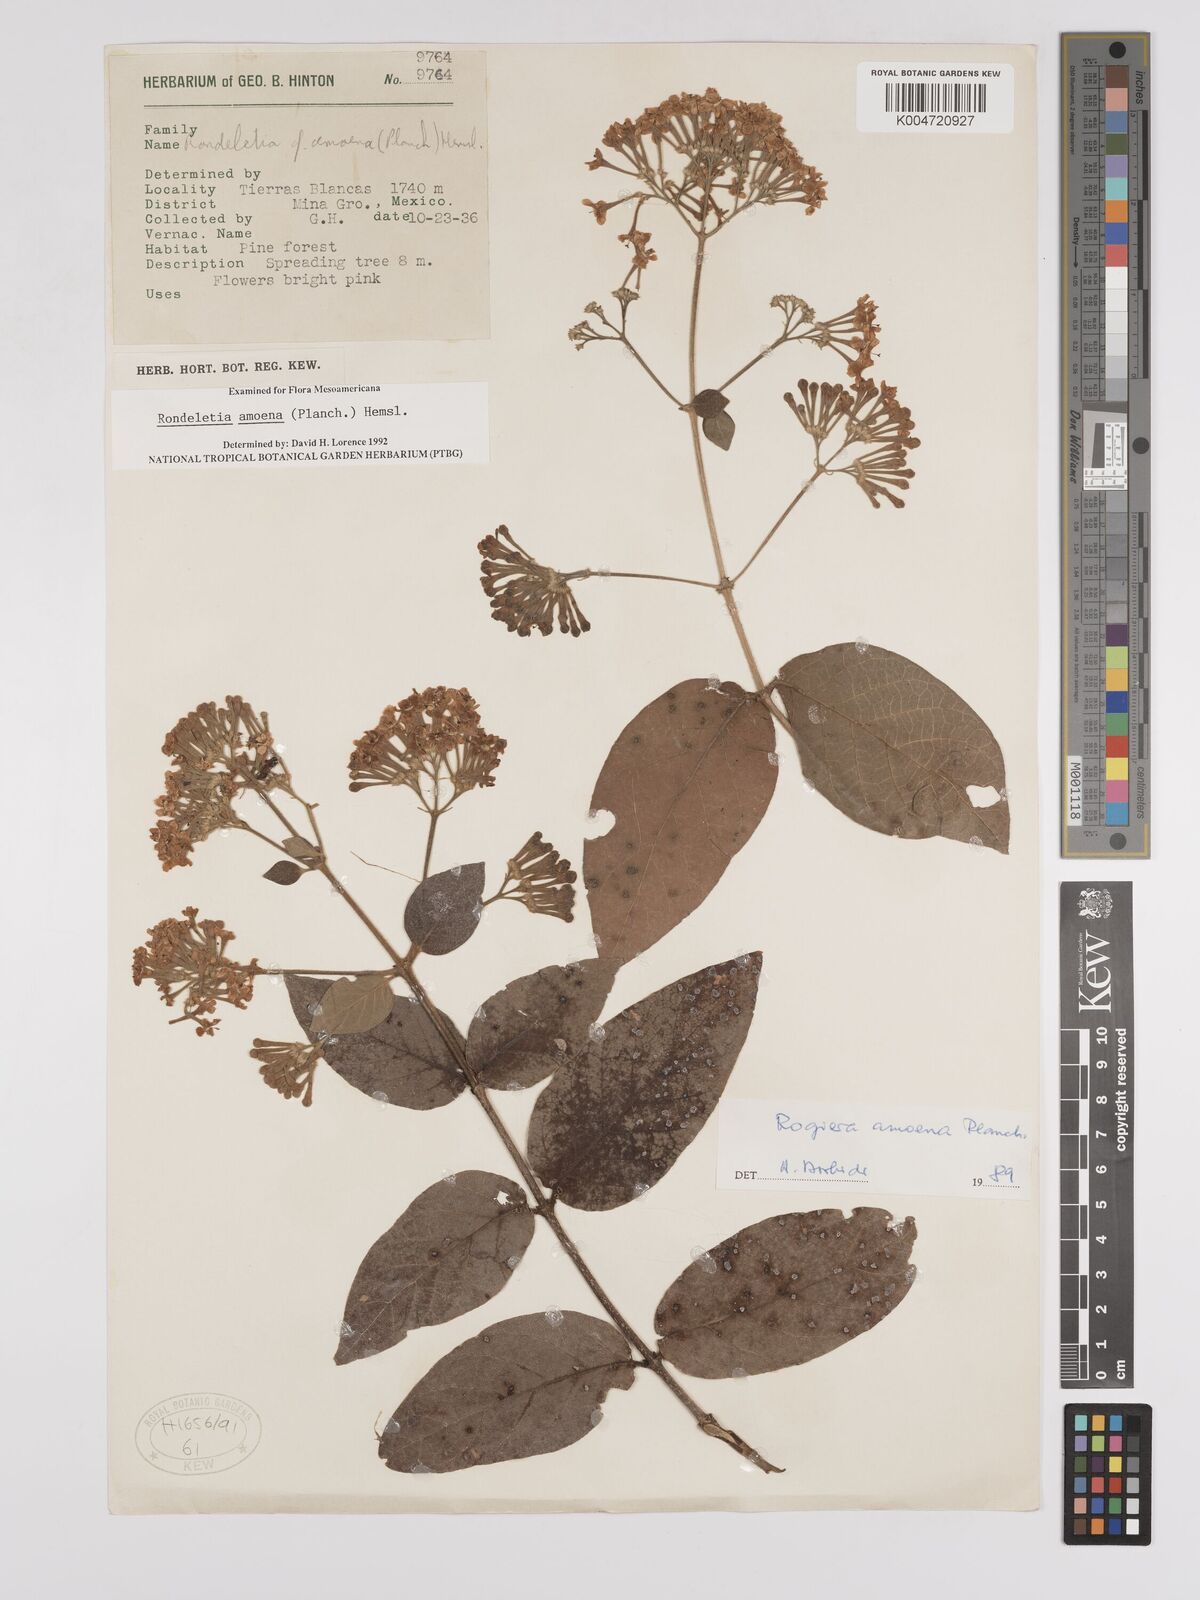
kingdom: Plantae
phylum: Tracheophyta
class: Magnoliopsida
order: Gentianales
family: Rubiaceae
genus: Rogiera
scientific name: Rogiera amoena
